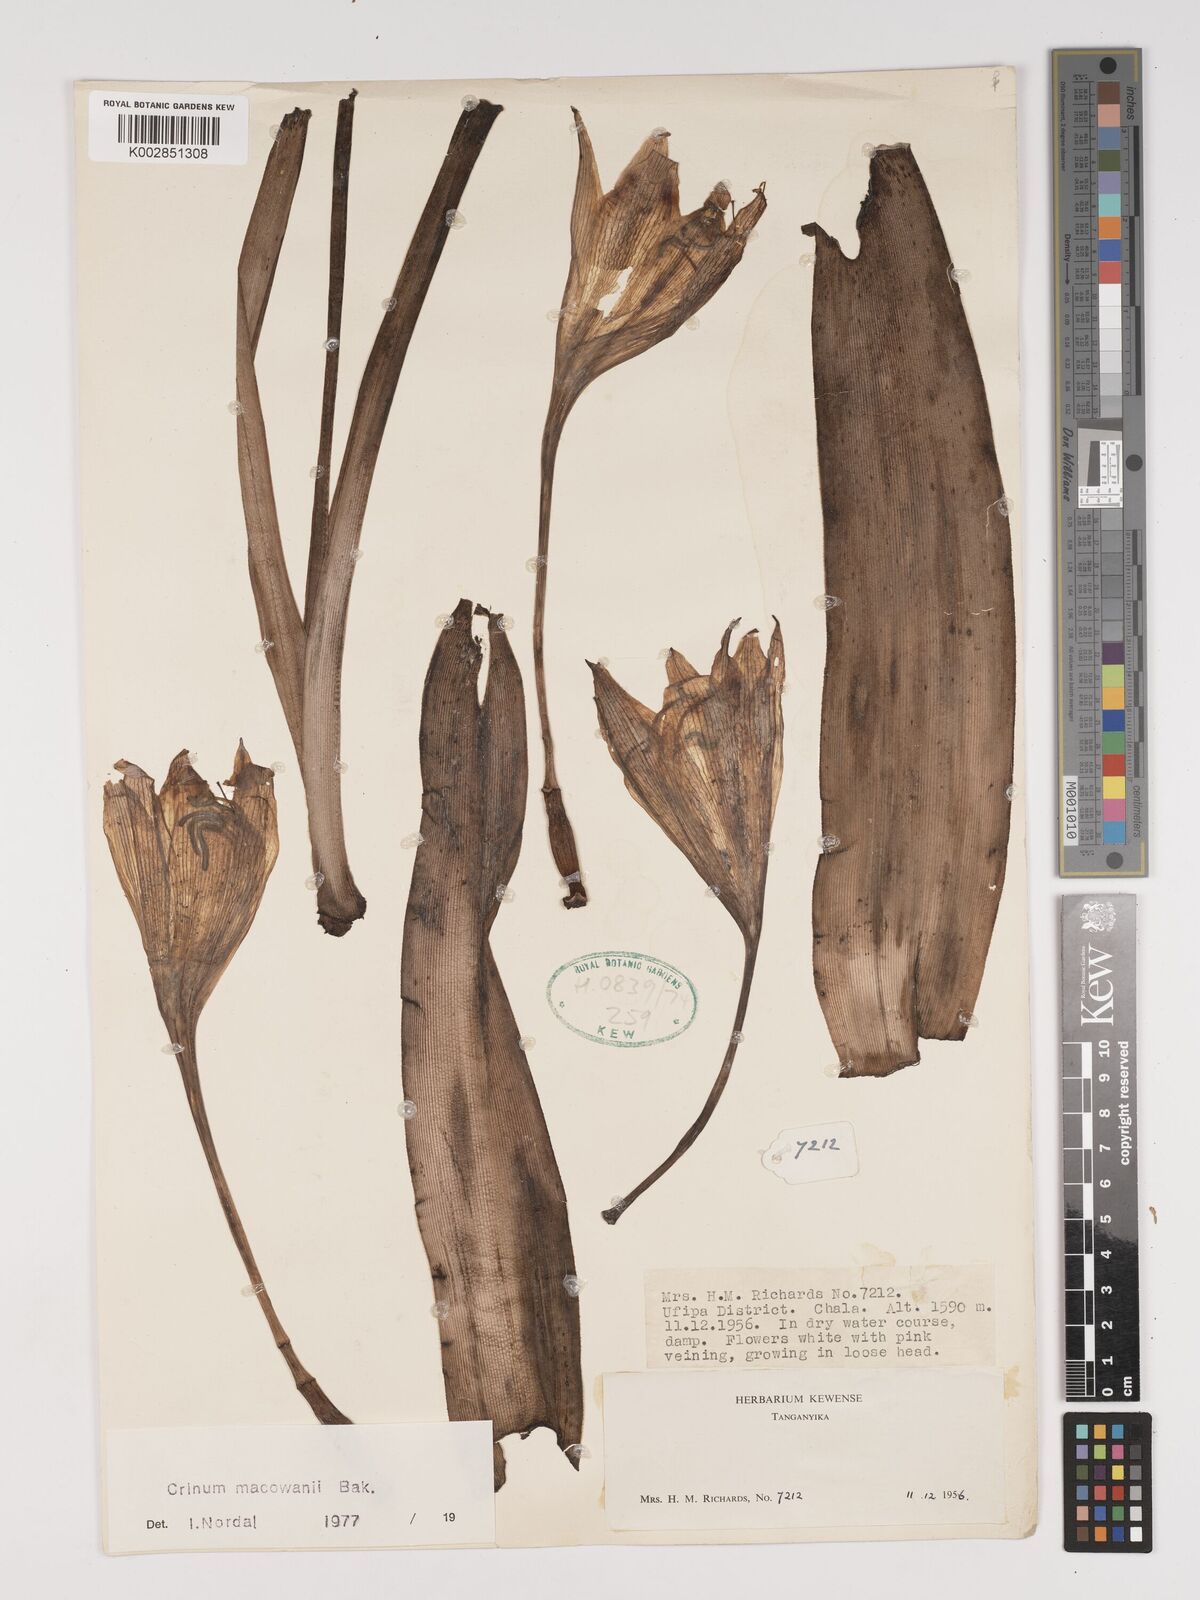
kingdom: Plantae
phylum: Tracheophyta
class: Liliopsida
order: Asparagales
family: Amaryllidaceae
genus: Crinum
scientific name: Crinum macowanii
